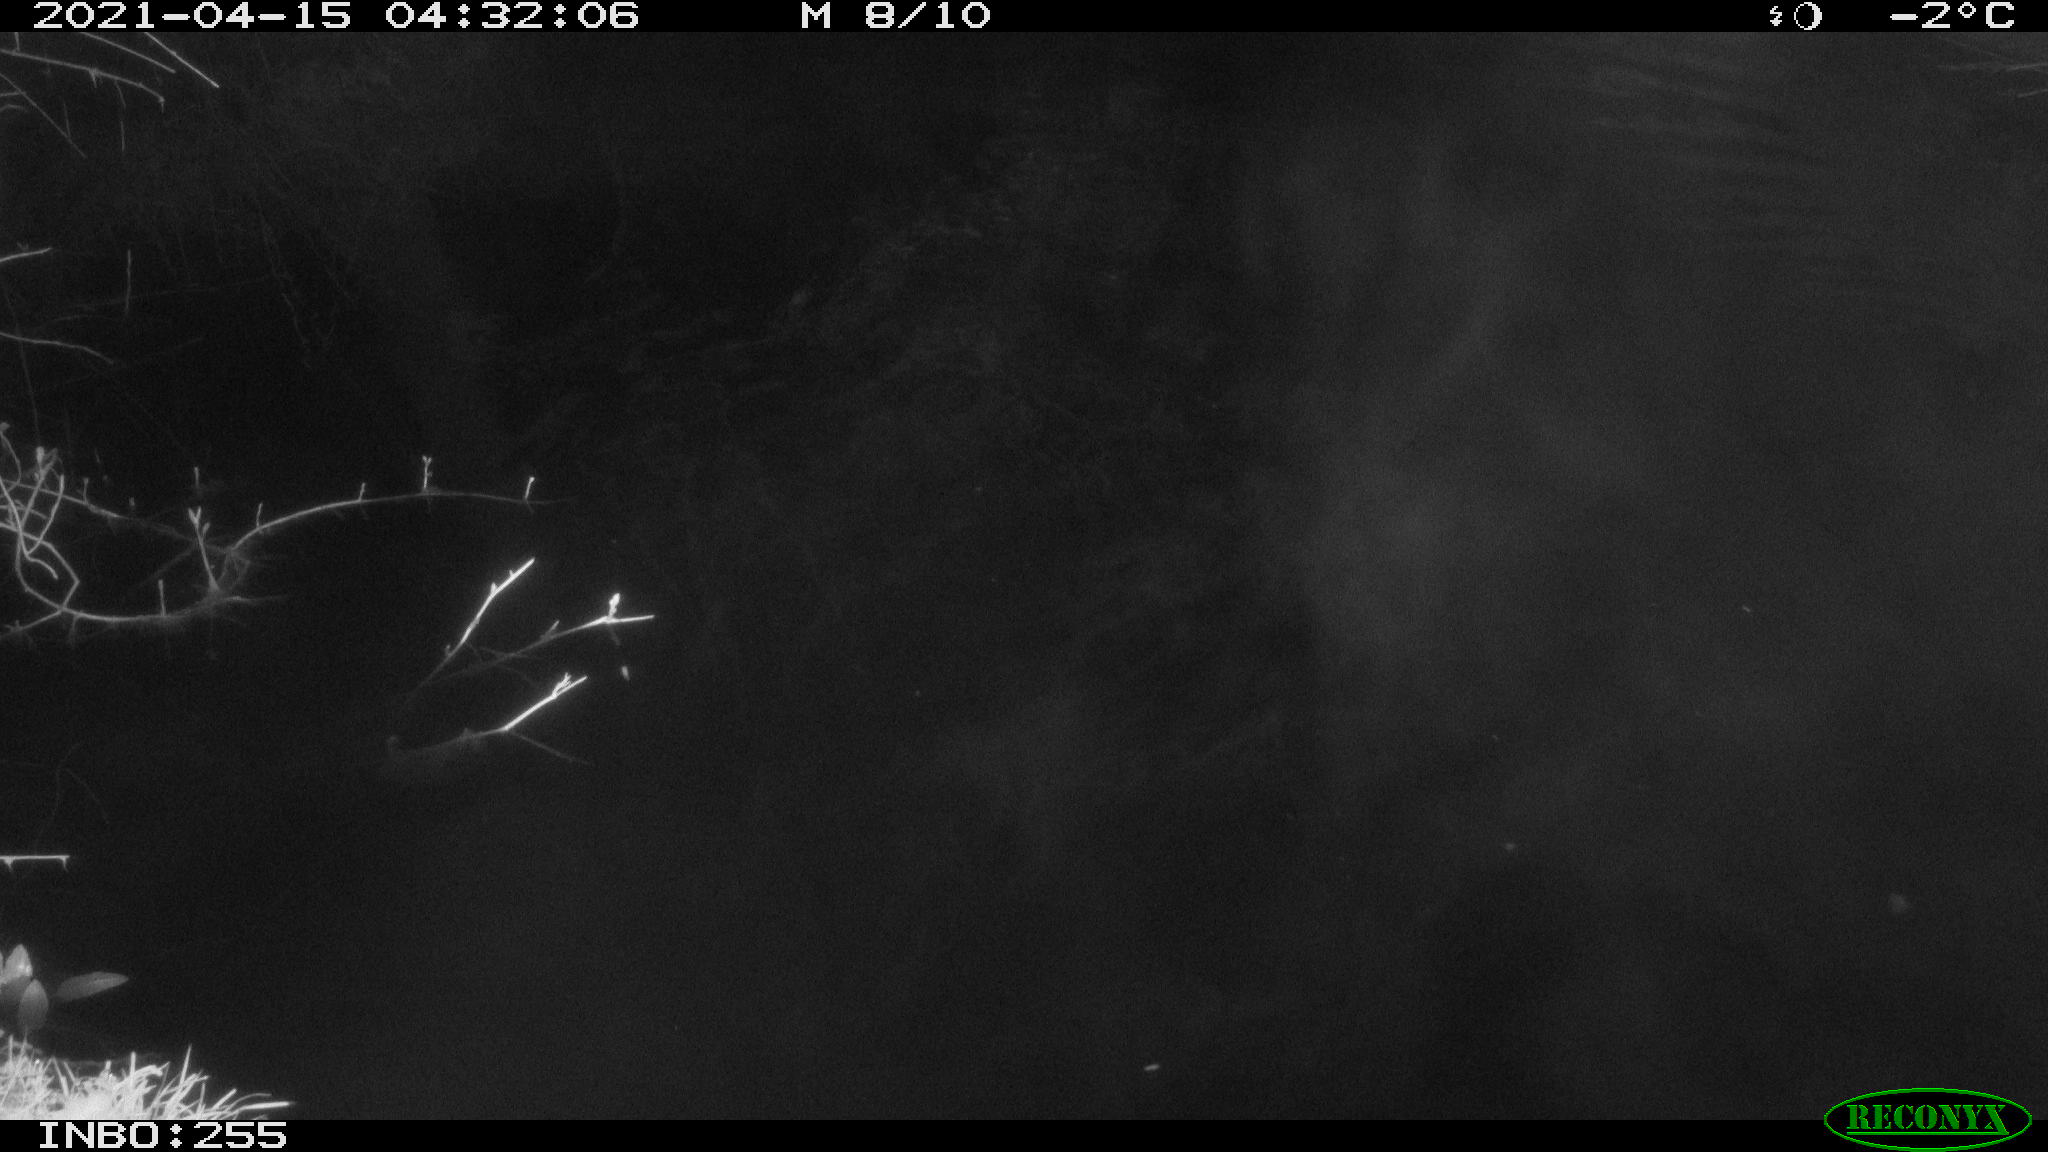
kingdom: Animalia
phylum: Chordata
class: Aves
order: Anseriformes
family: Anatidae
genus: Anas
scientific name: Anas platyrhynchos
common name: Mallard
